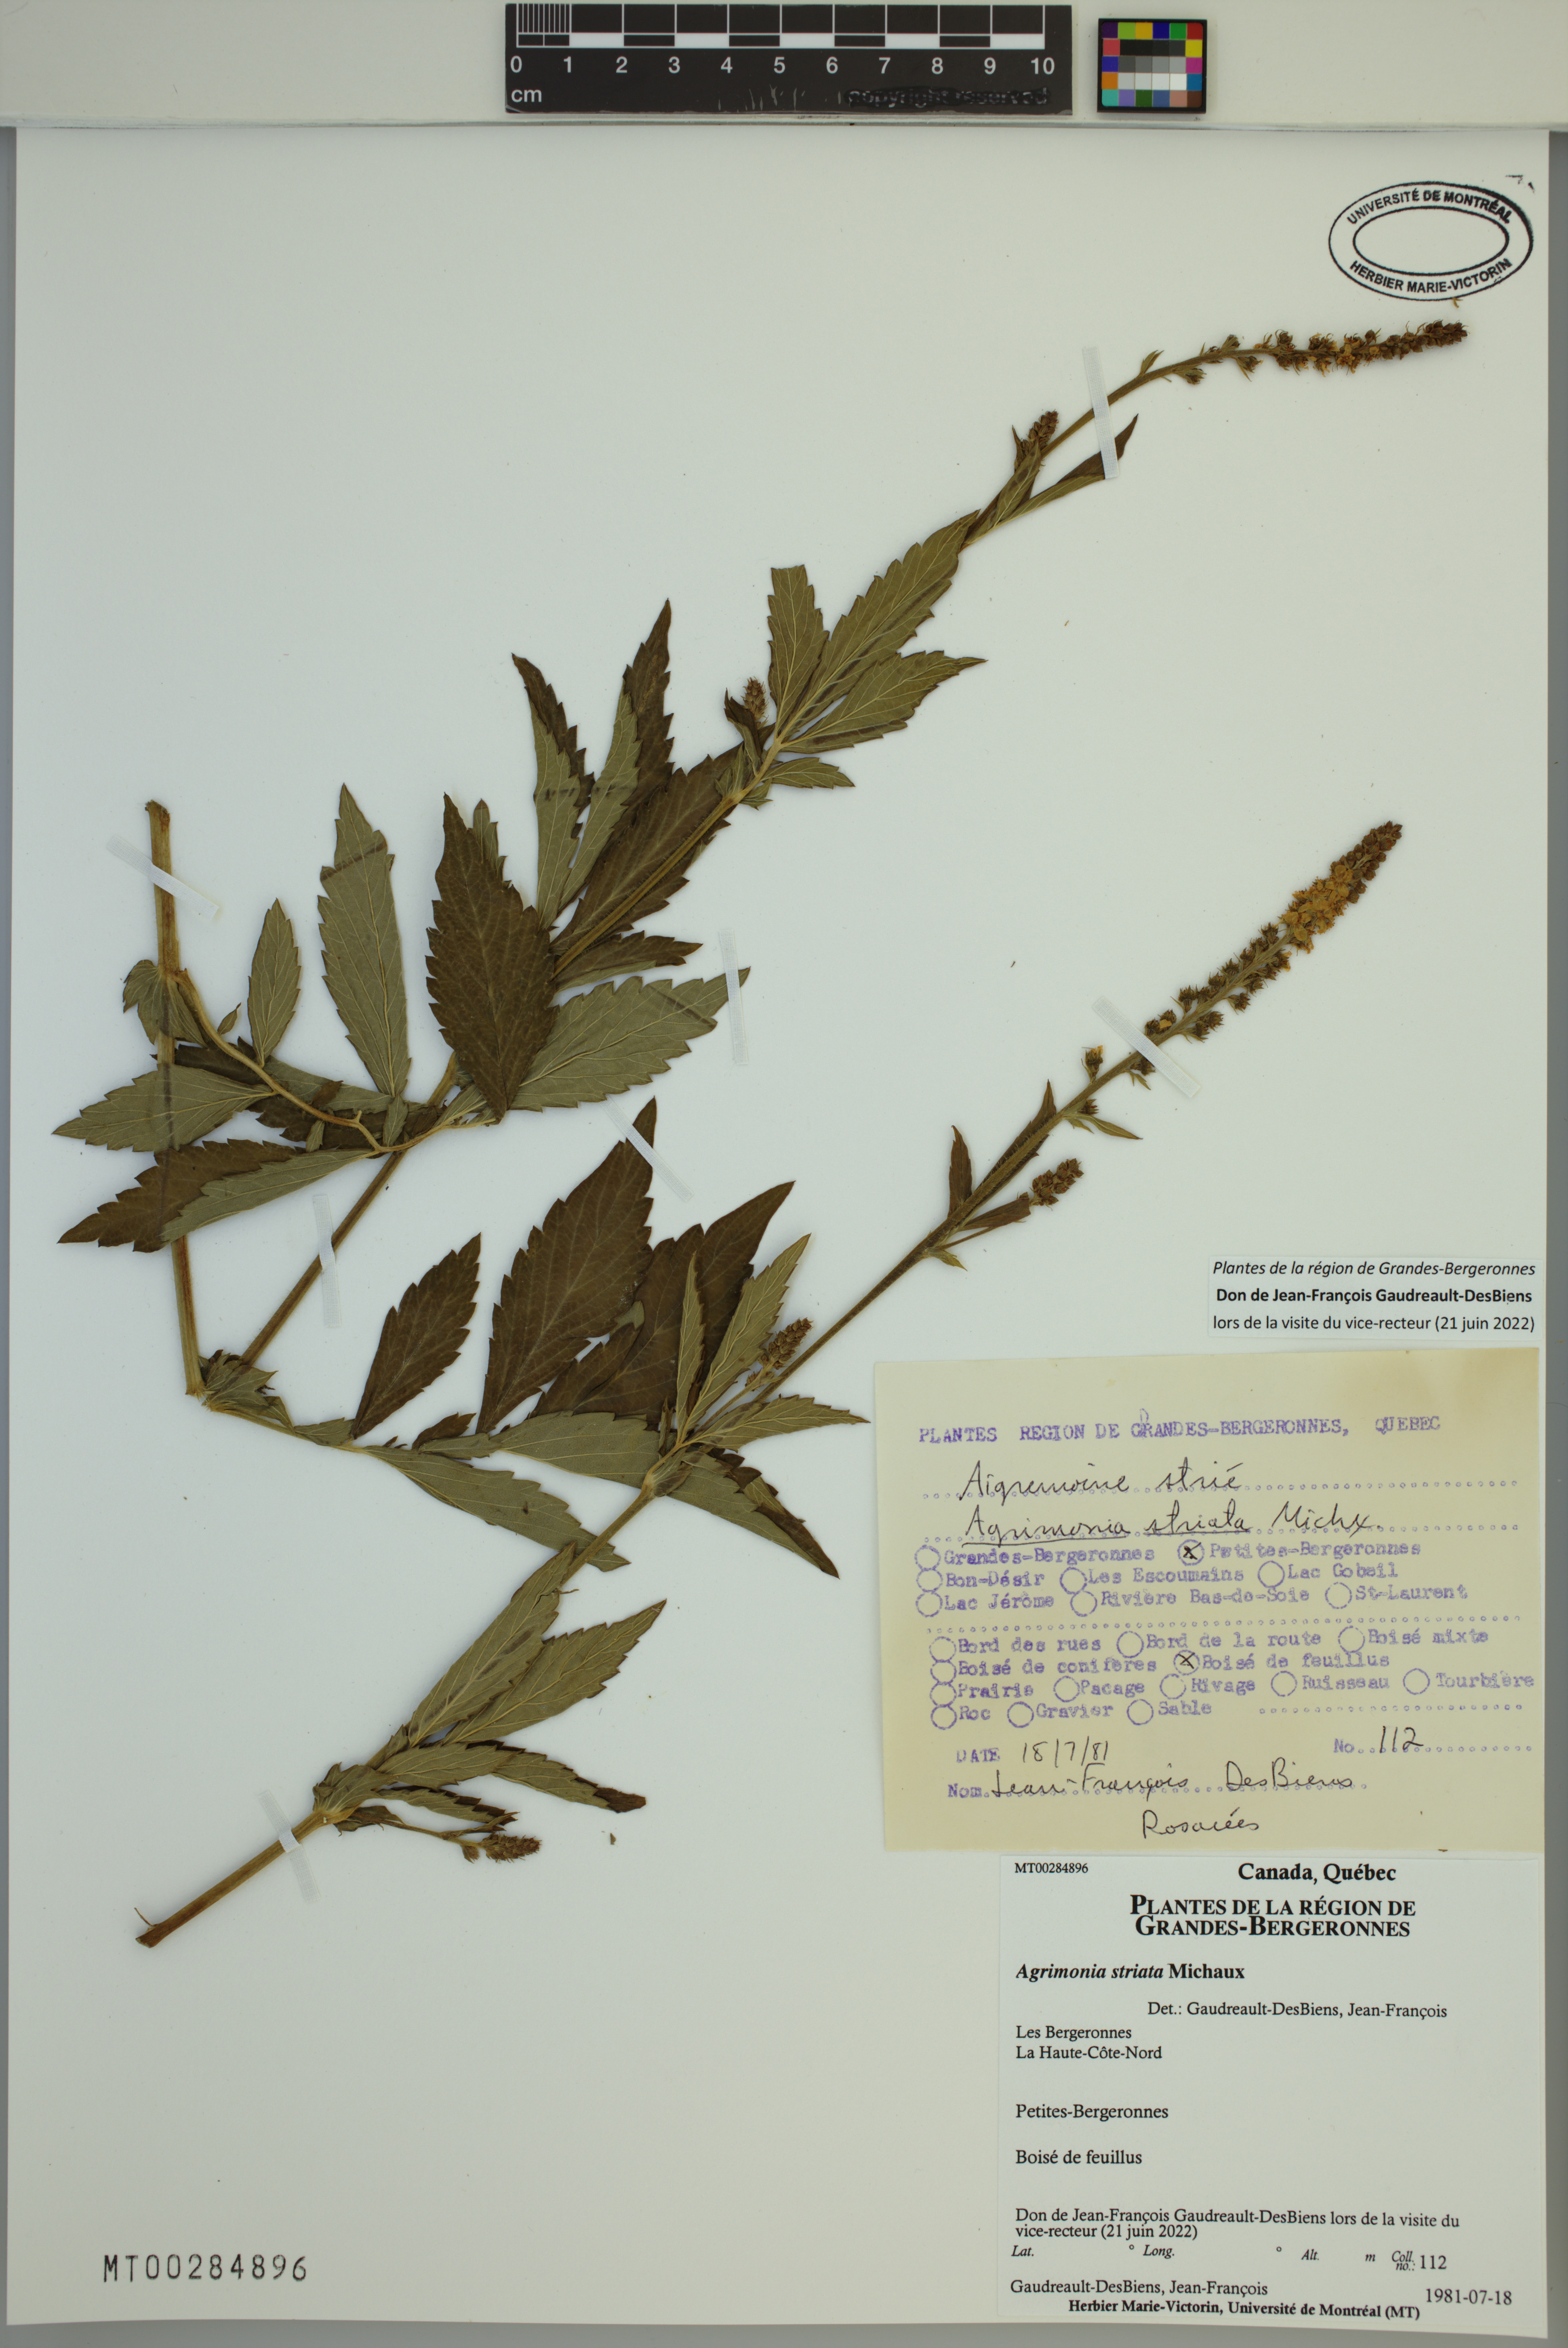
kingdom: Plantae
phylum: Tracheophyta
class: Magnoliopsida
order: Rosales
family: Rosaceae
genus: Agrimonia
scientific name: Agrimonia striata
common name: Britton's agrimony
